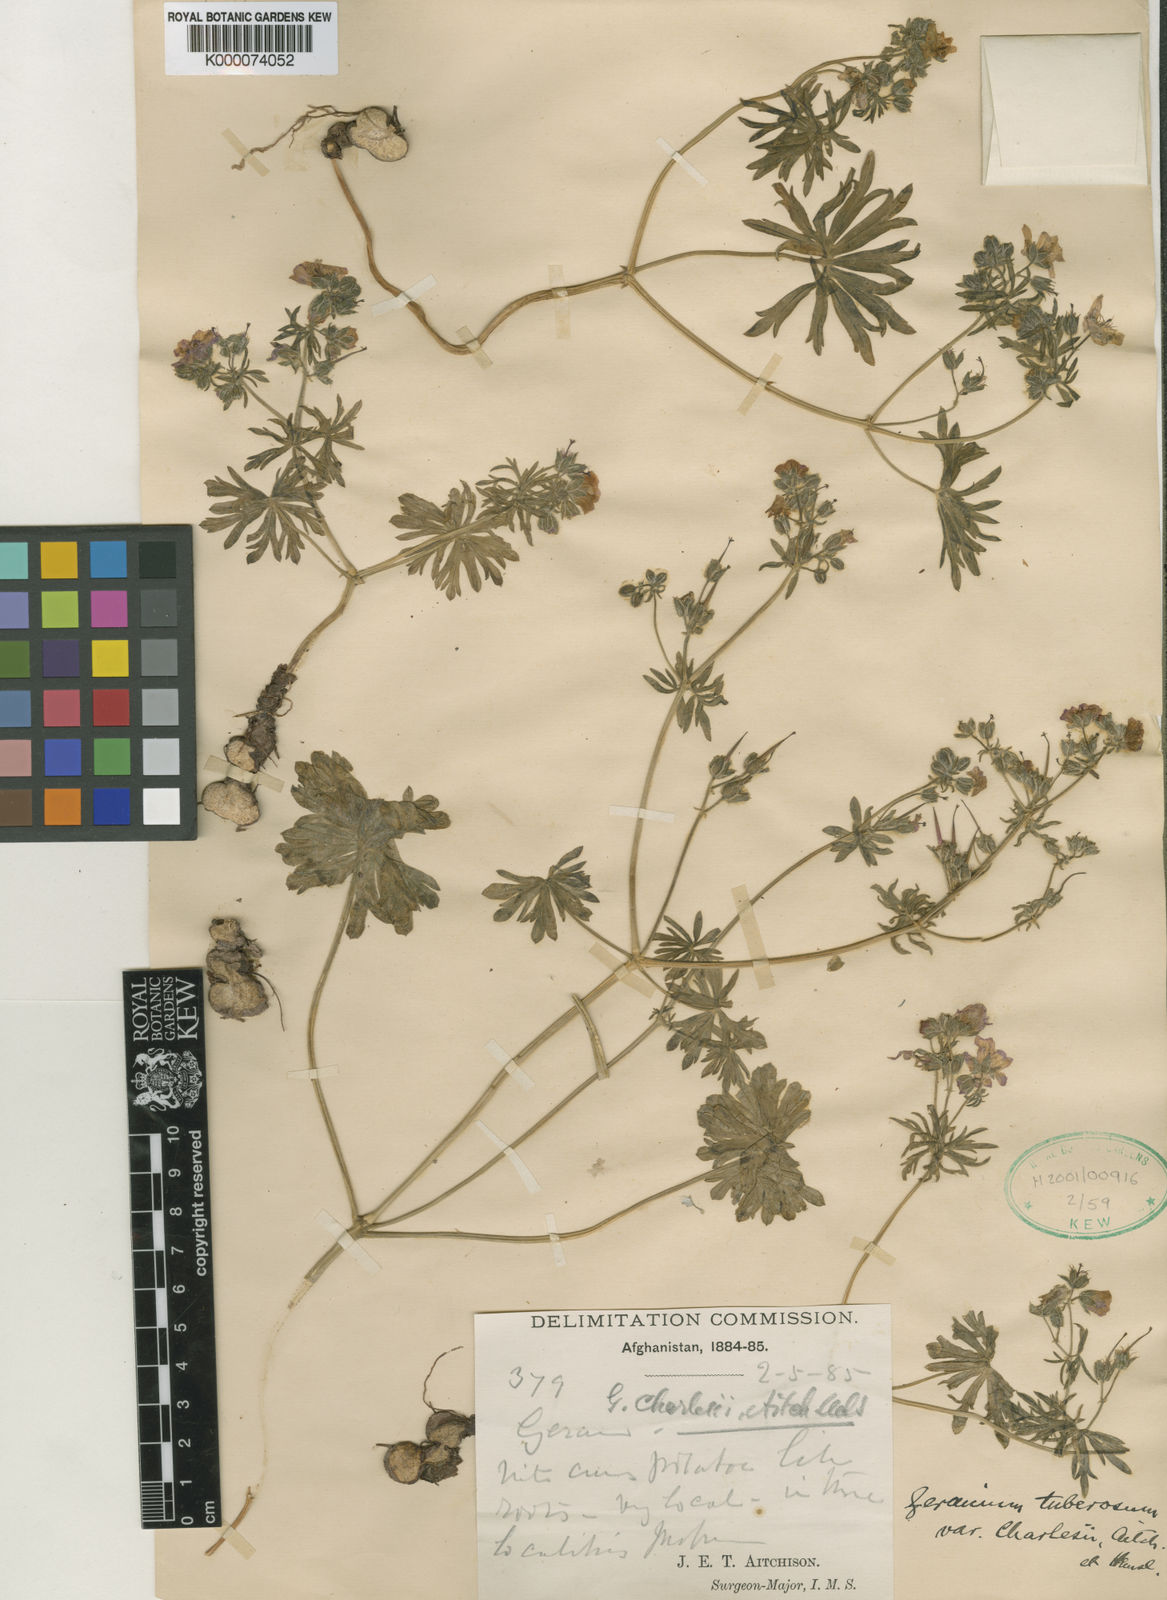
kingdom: Plantae
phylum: Tracheophyta
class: Magnoliopsida
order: Geraniales
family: Geraniaceae
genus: Geranium
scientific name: Geranium kotschyi
